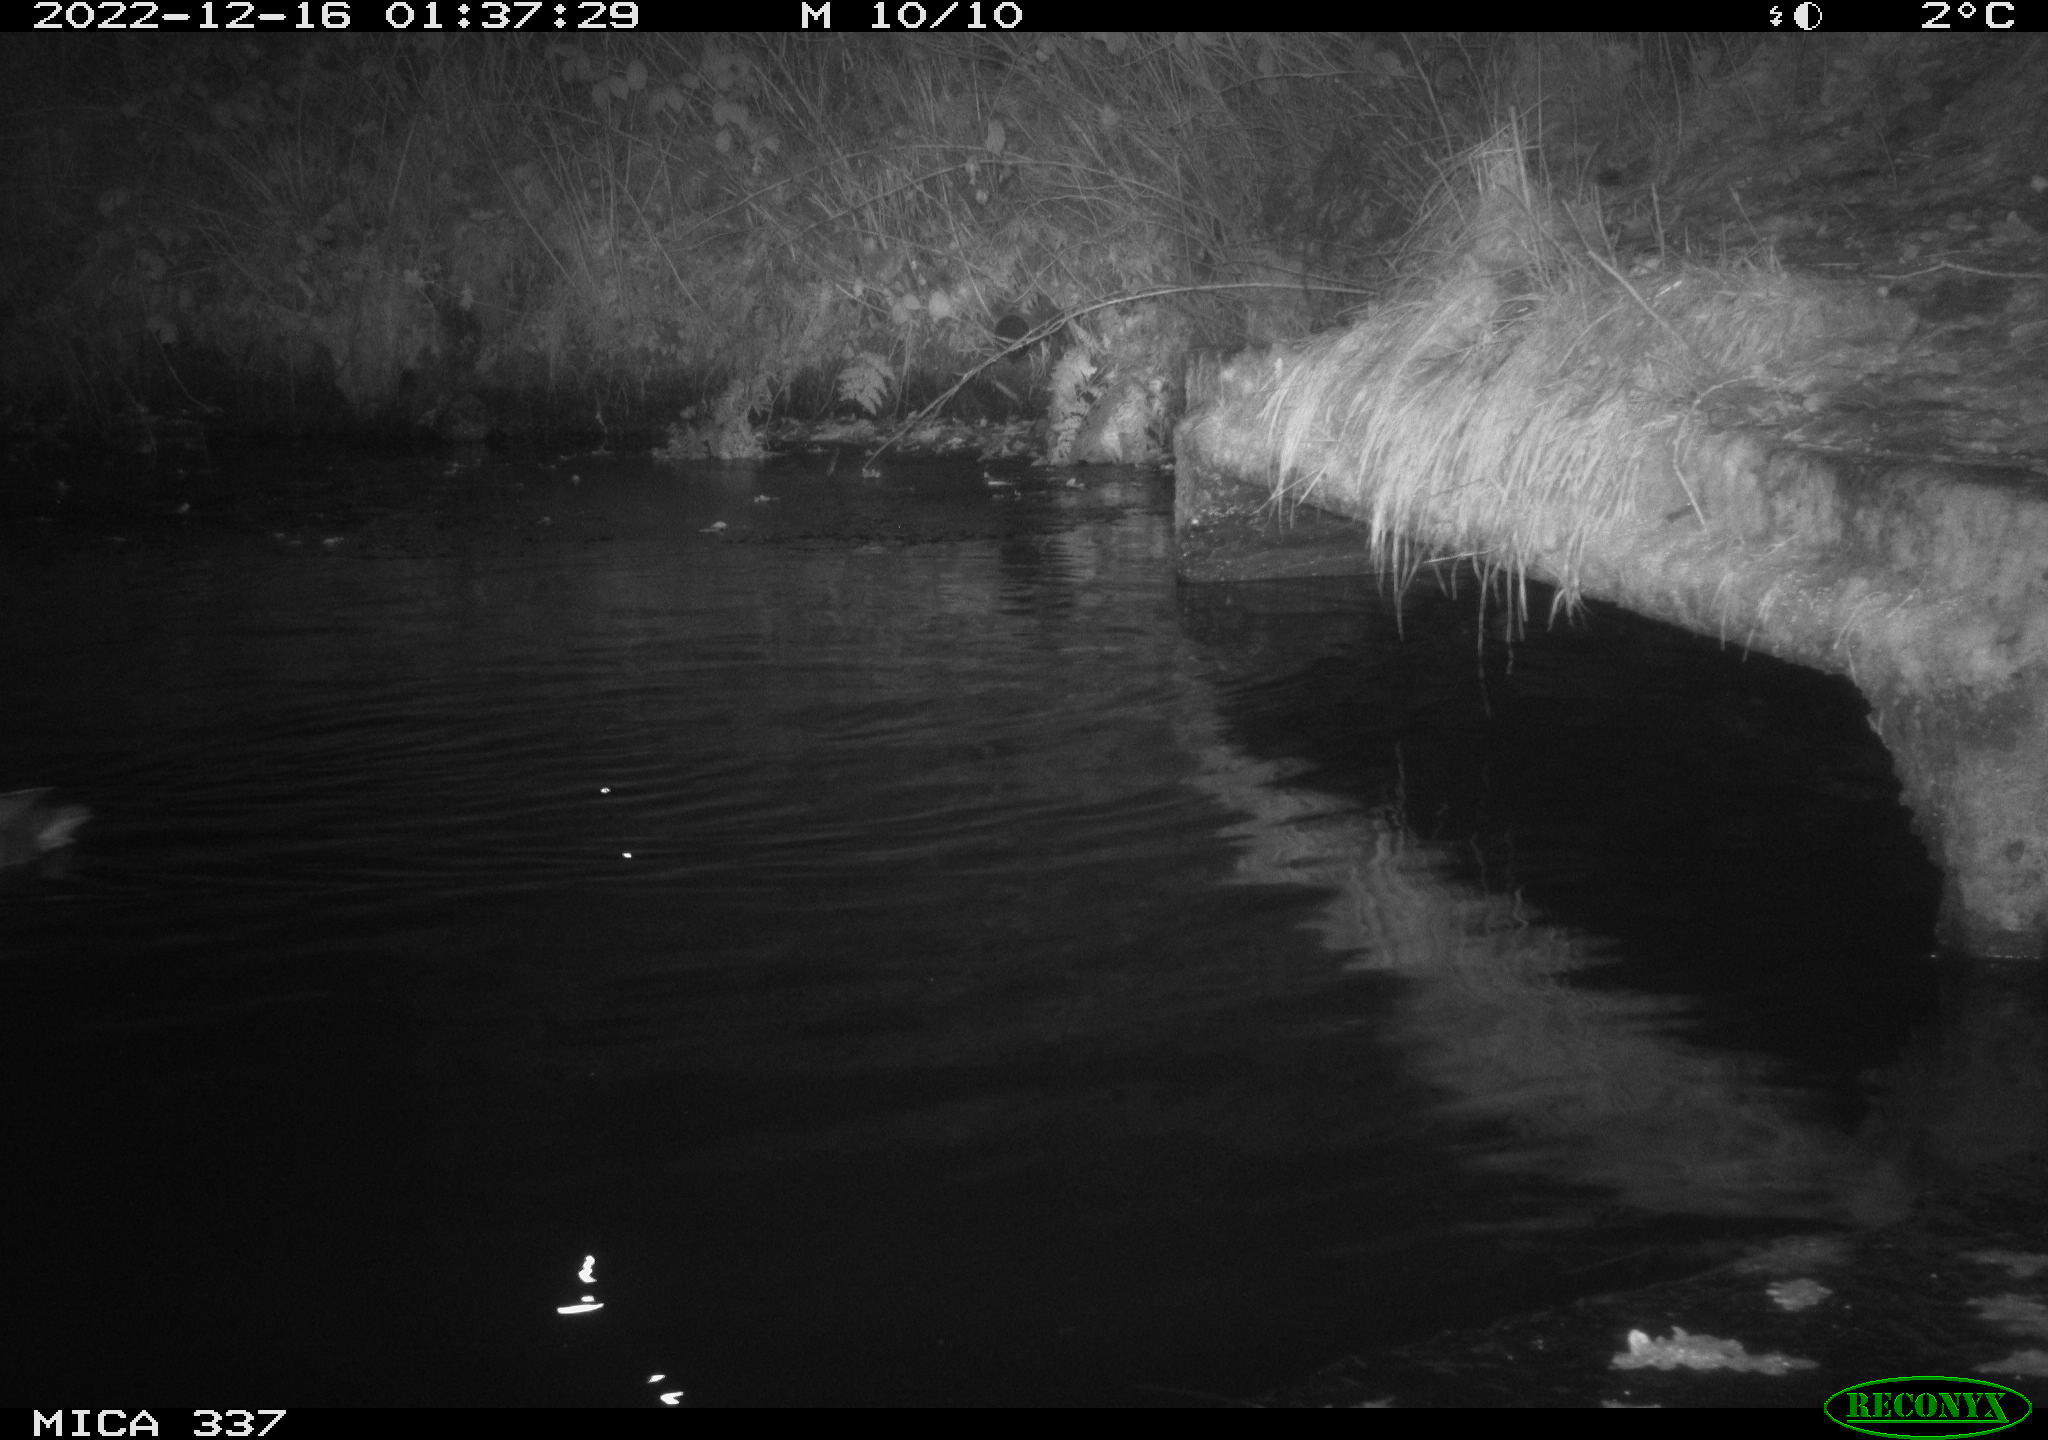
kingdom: Animalia
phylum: Chordata
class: Aves
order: Anseriformes
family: Anatidae
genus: Anas
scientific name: Anas
